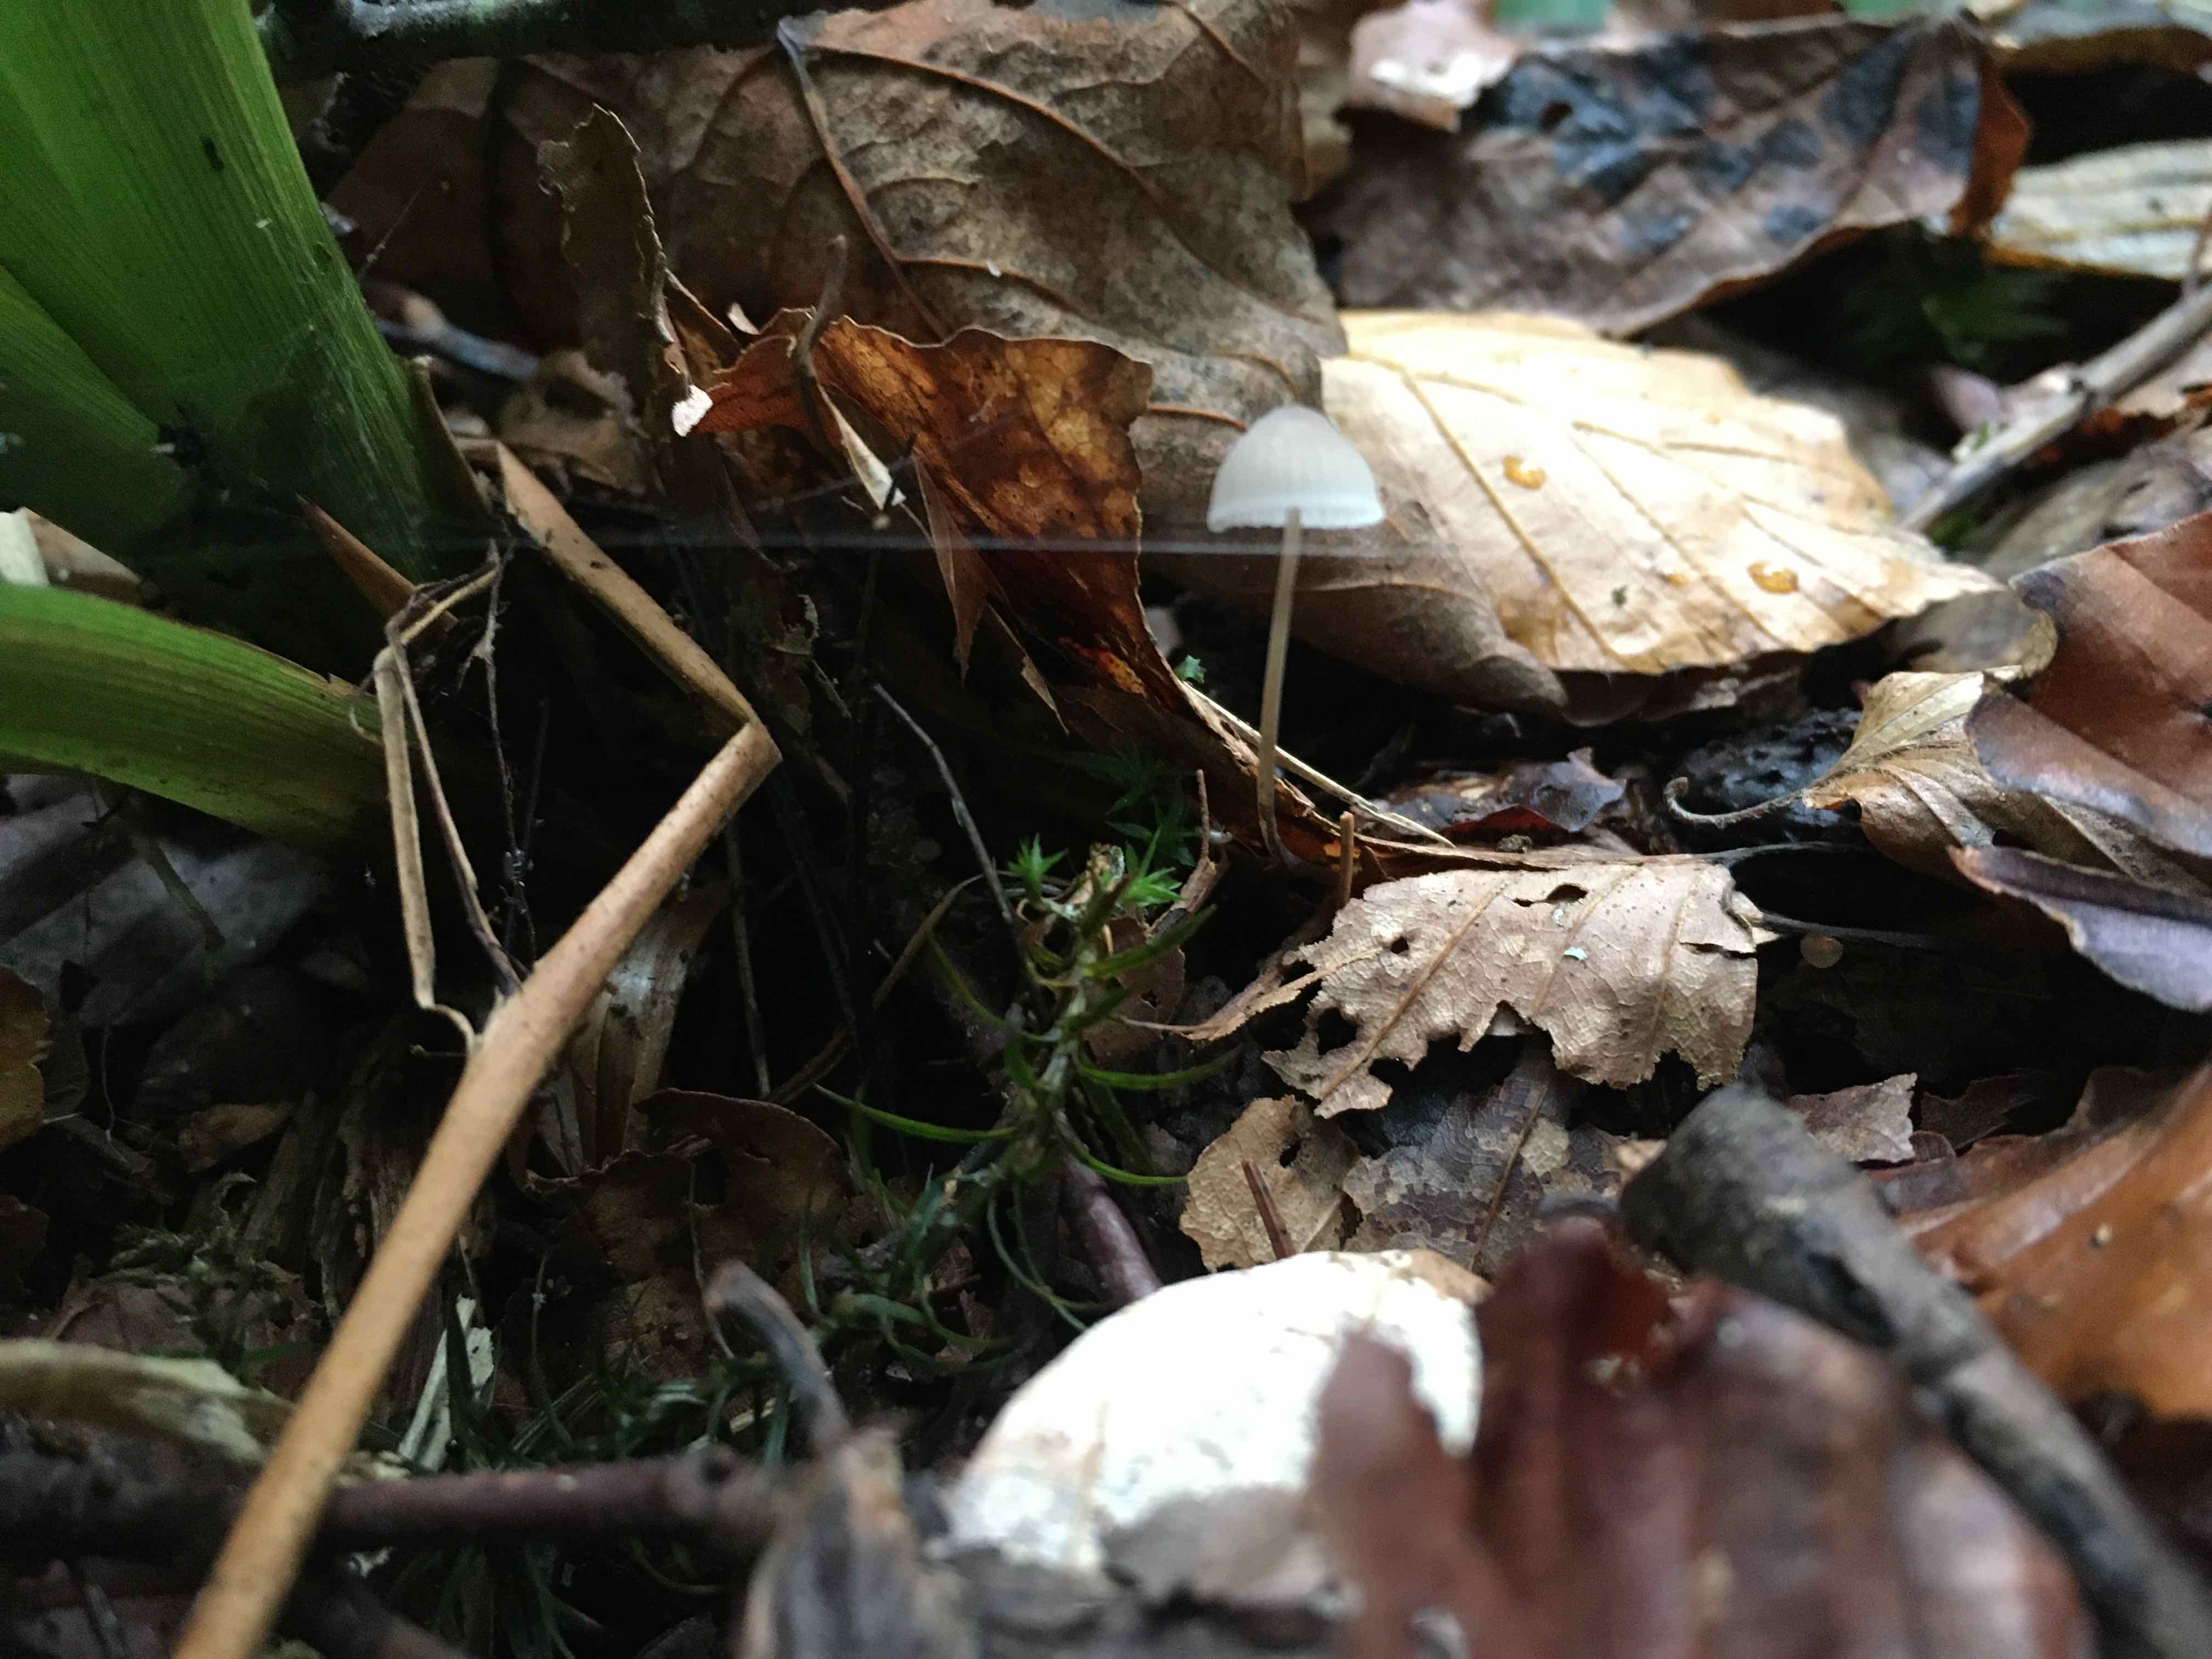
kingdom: Fungi
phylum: Basidiomycota
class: Agaricomycetes
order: Agaricales
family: Mycenaceae
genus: Mycena
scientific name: Mycena
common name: huesvamp
